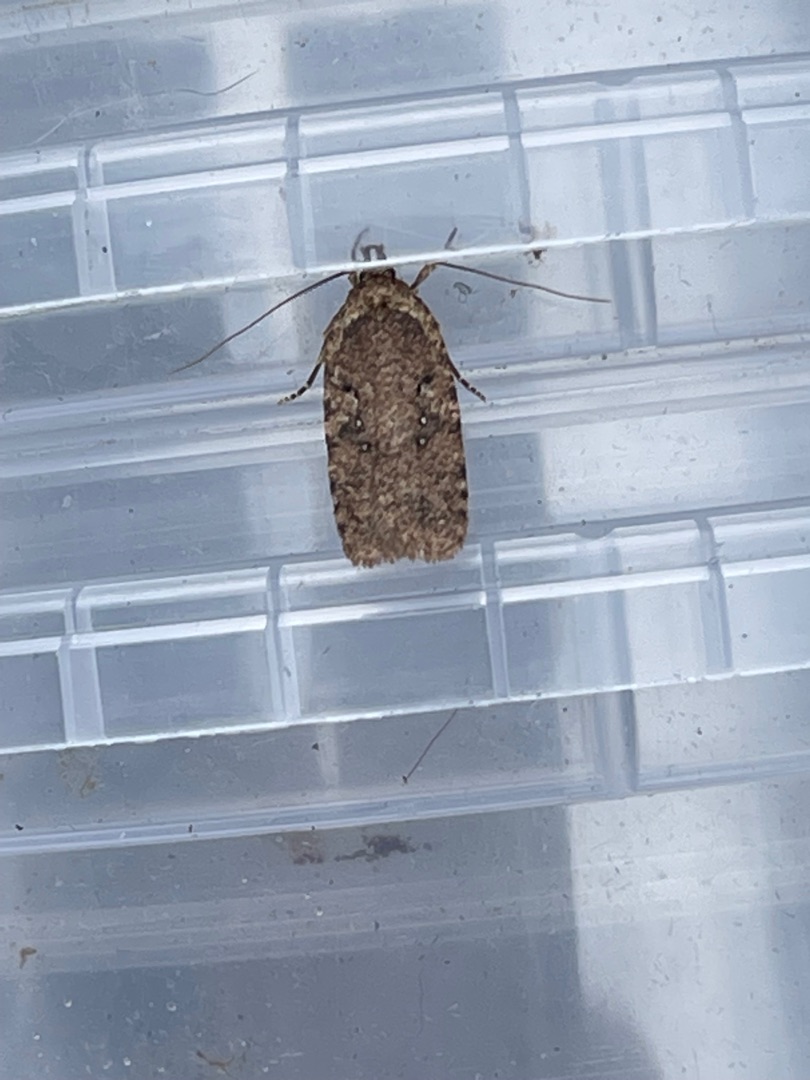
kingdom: Animalia
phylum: Arthropoda
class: Insecta
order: Lepidoptera
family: Depressariidae
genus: Agonopterix
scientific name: Agonopterix heracliana
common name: Almindelig fladmøl
